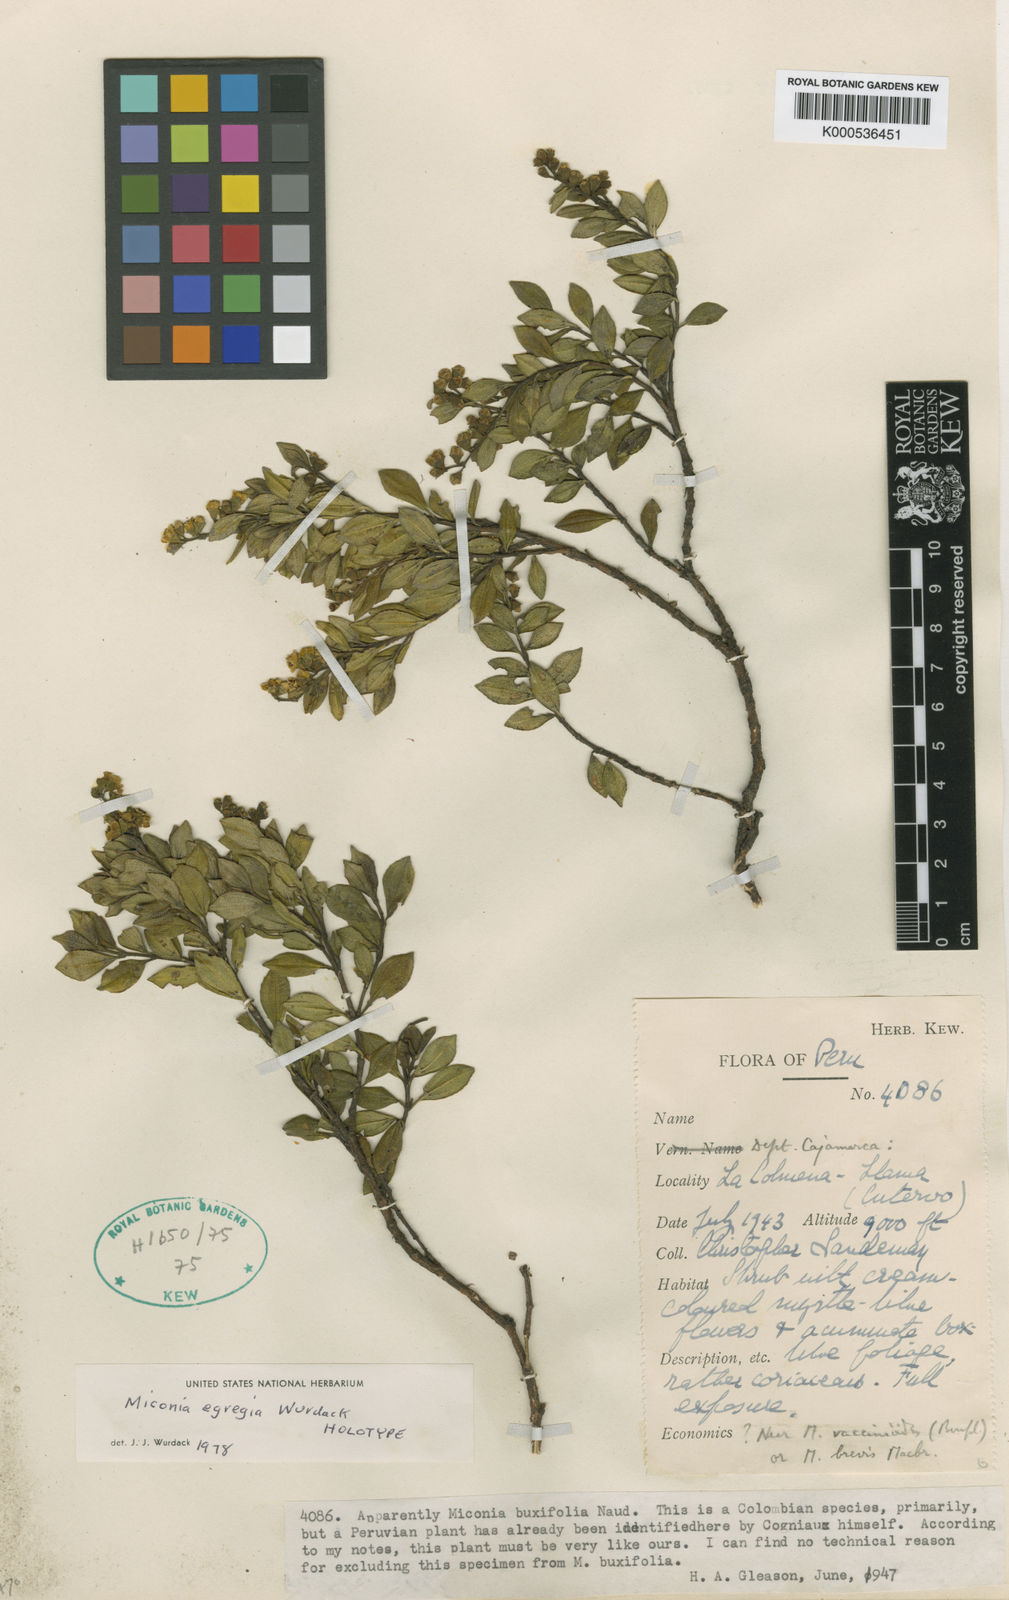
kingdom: Plantae
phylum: Tracheophyta
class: Magnoliopsida
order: Myrtales
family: Melastomataceae
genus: Miconia
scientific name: Miconia egregia
